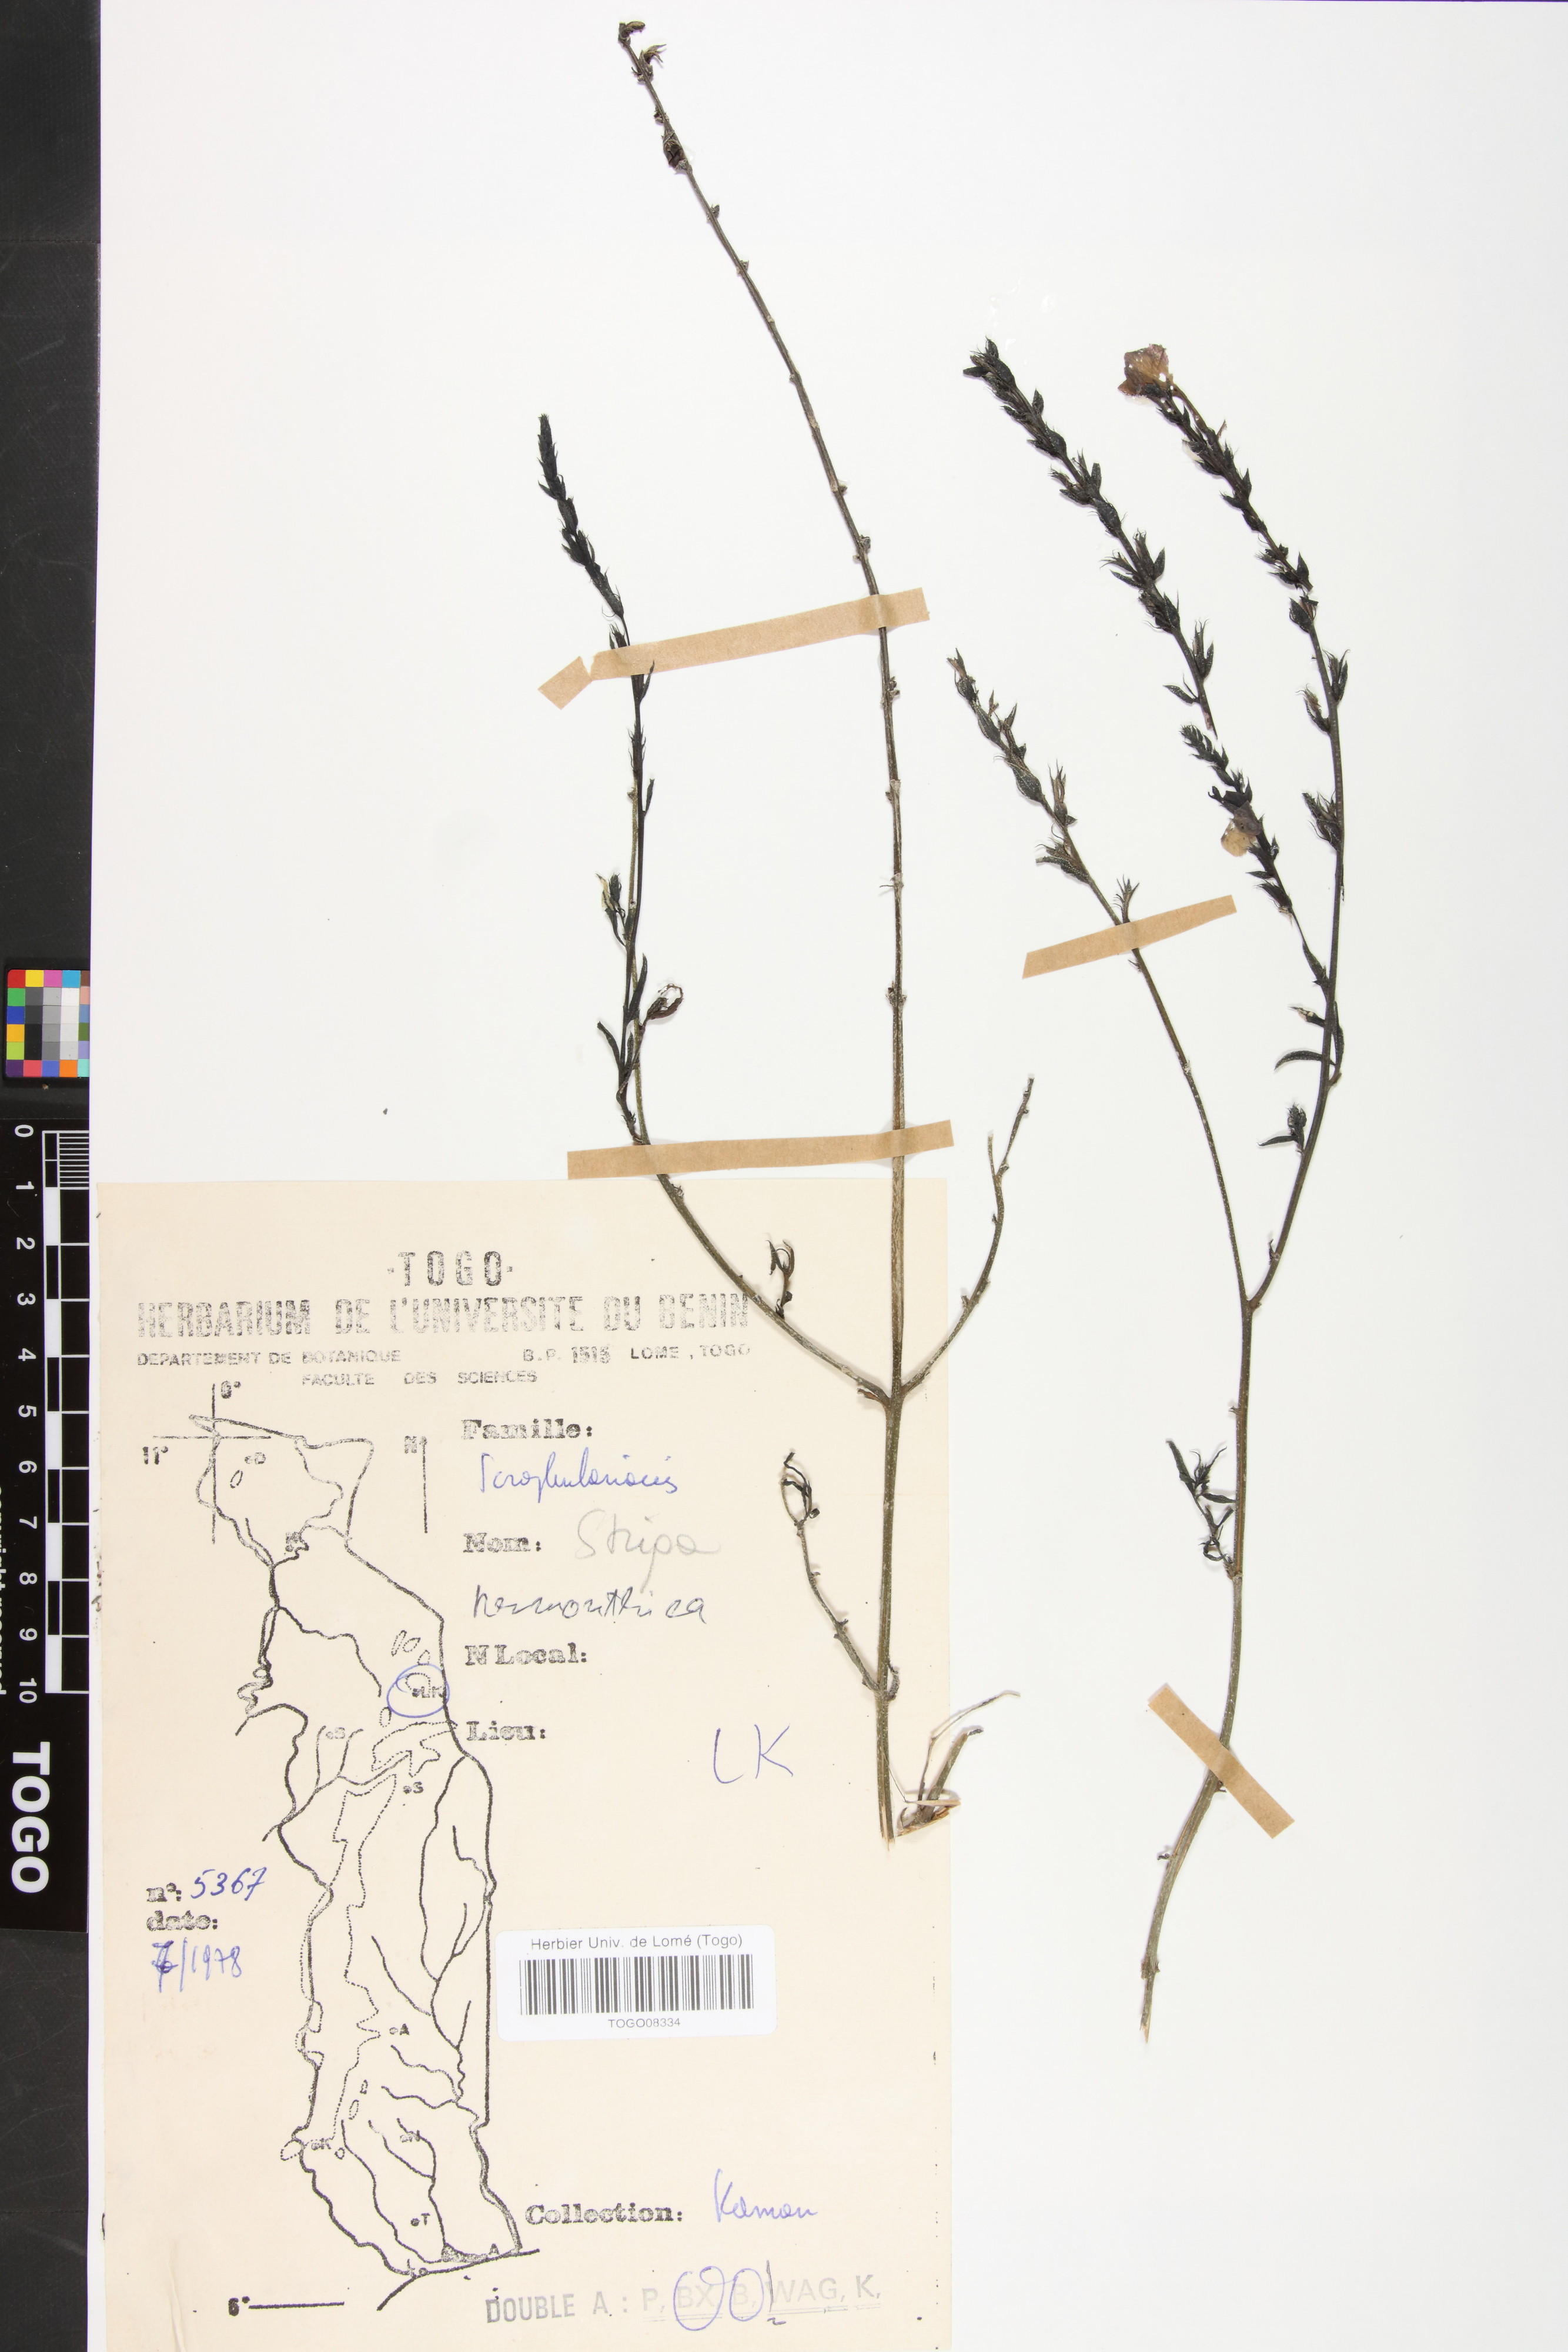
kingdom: Plantae
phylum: Tracheophyta
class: Magnoliopsida
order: Lamiales
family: Orobanchaceae
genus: Striga
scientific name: Striga hermonthica
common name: Purple witchweed
